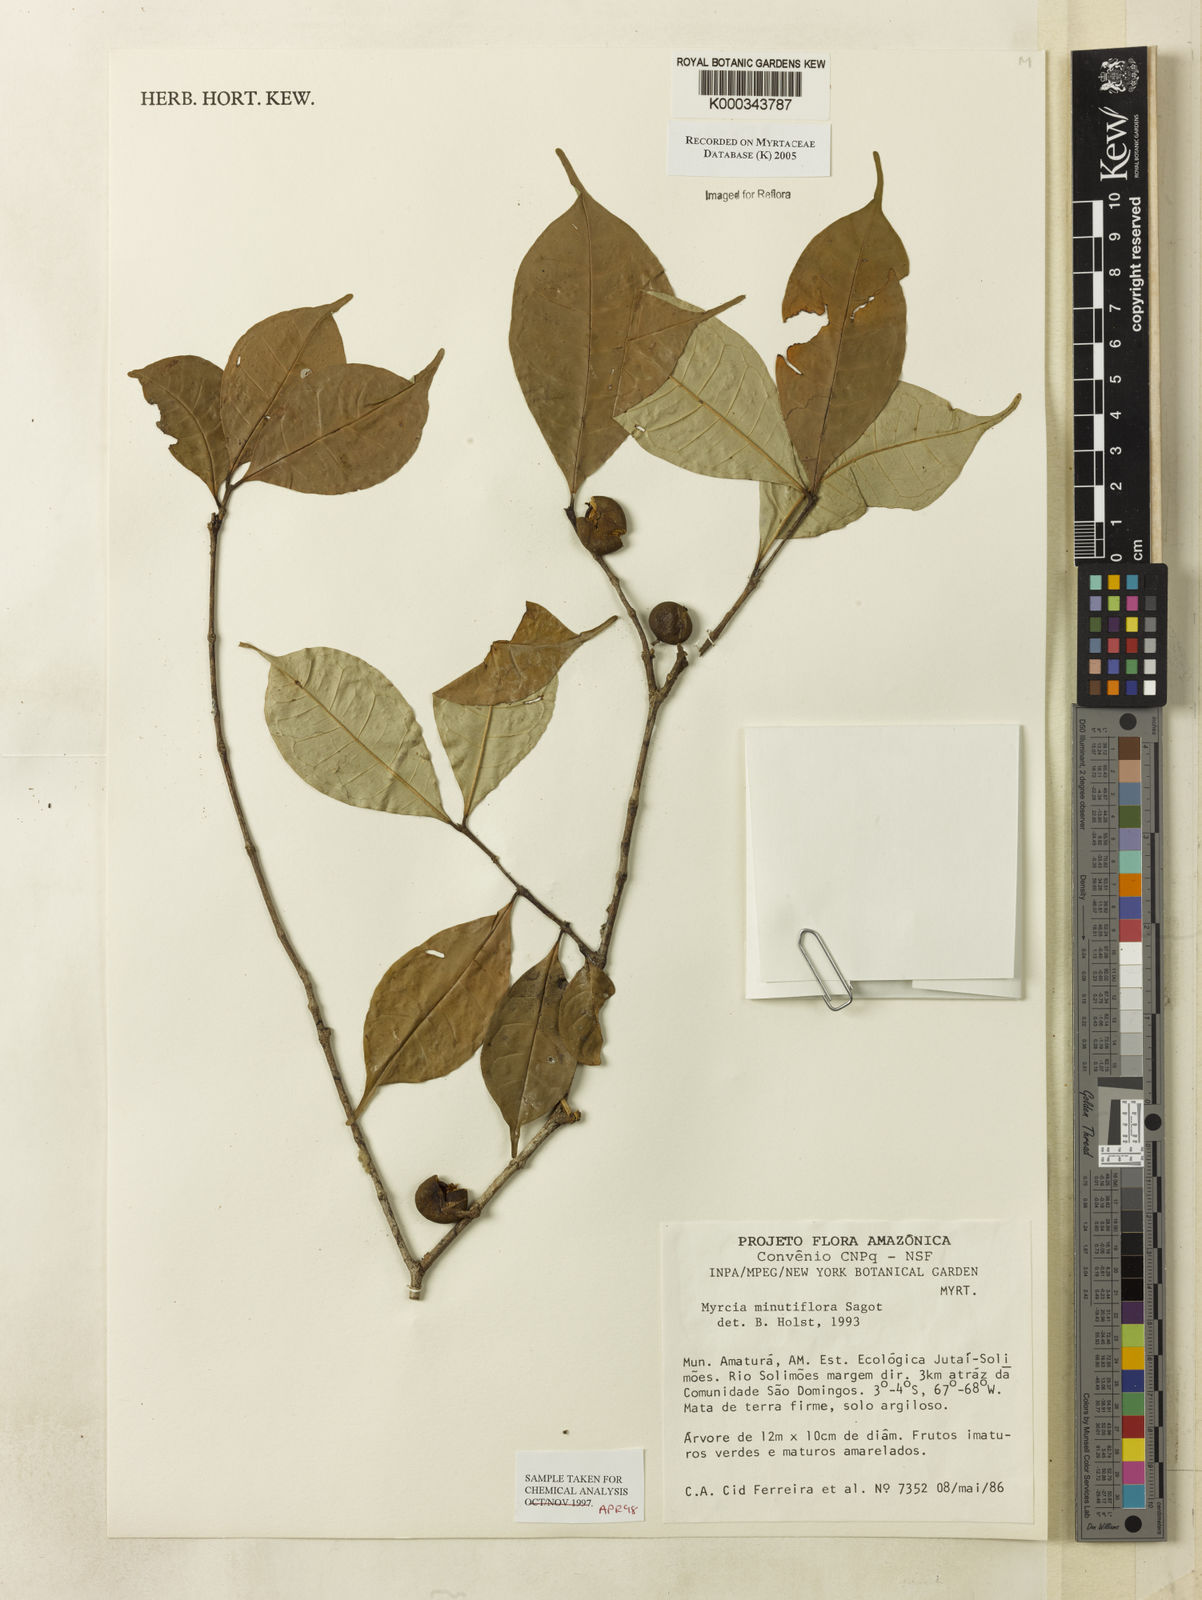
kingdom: Plantae
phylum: Tracheophyta
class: Magnoliopsida
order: Myrtales
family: Myrtaceae
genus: Myrcia
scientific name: Myrcia minutiflora
